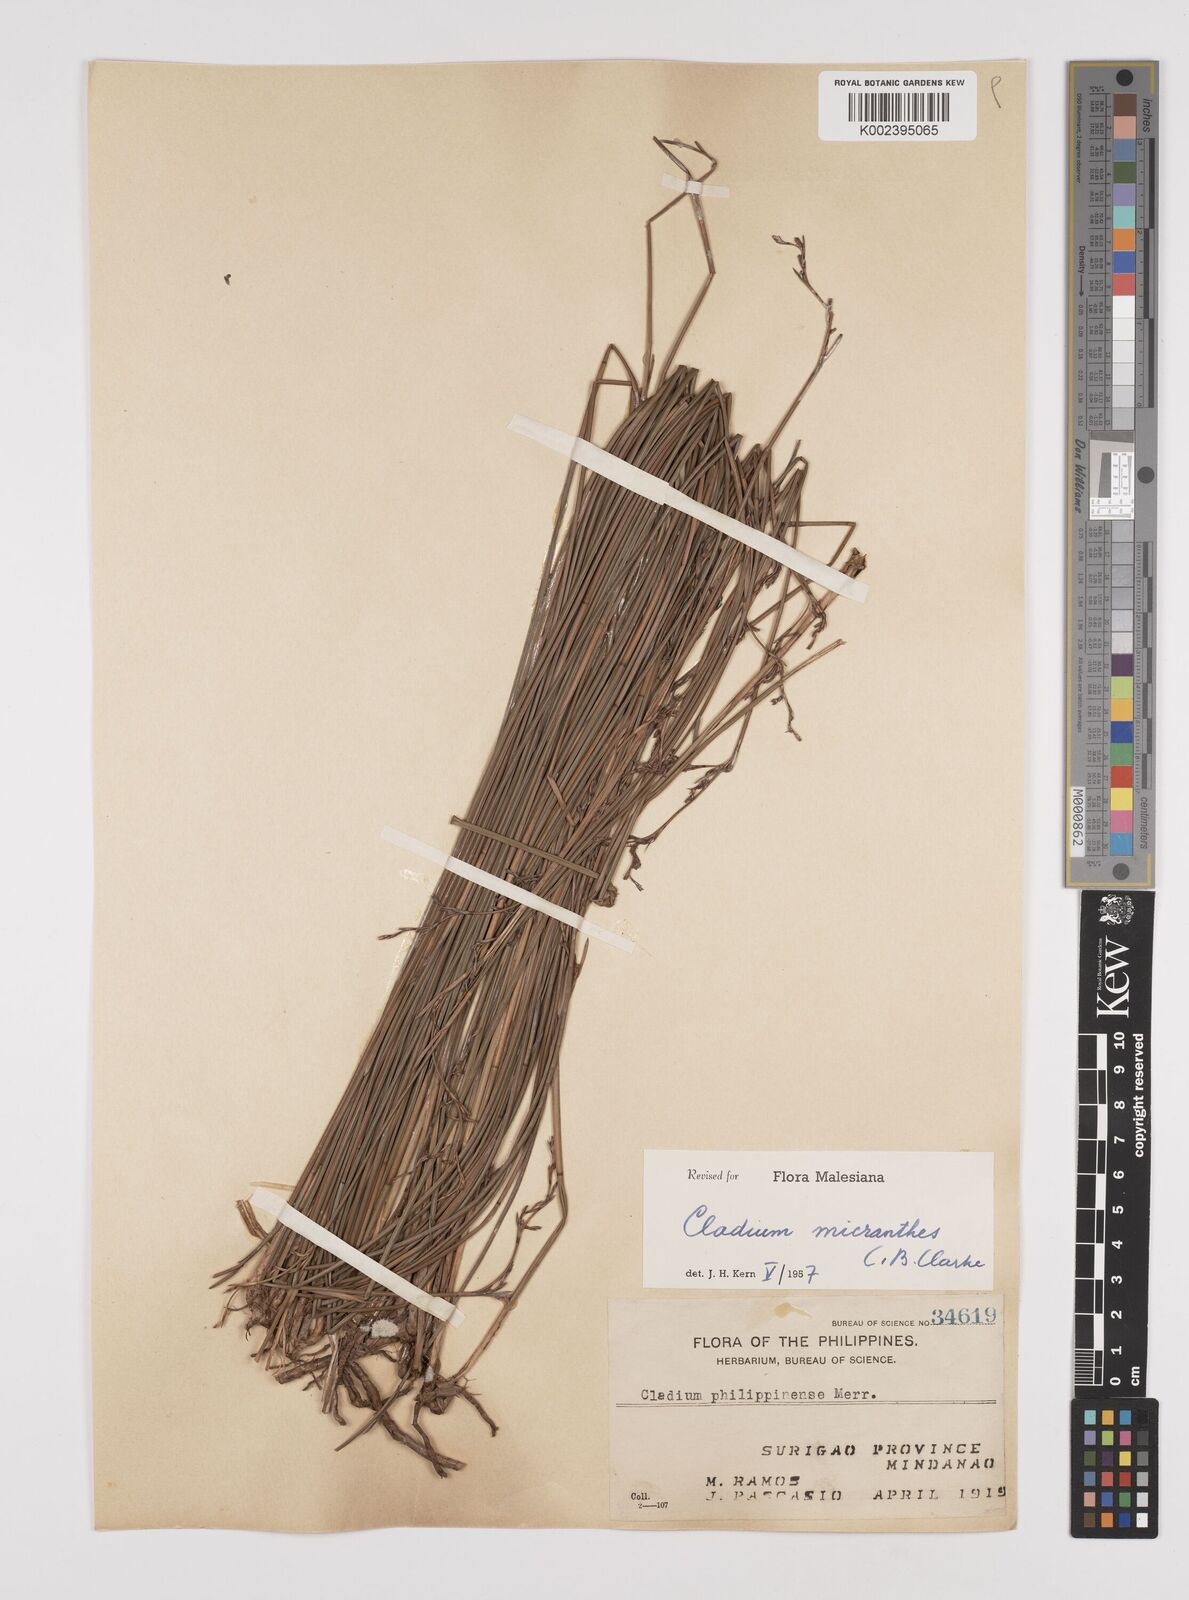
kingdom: Plantae
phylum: Tracheophyta
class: Liliopsida
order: Poales
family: Cyperaceae
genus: Machaerina
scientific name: Machaerina disticha
